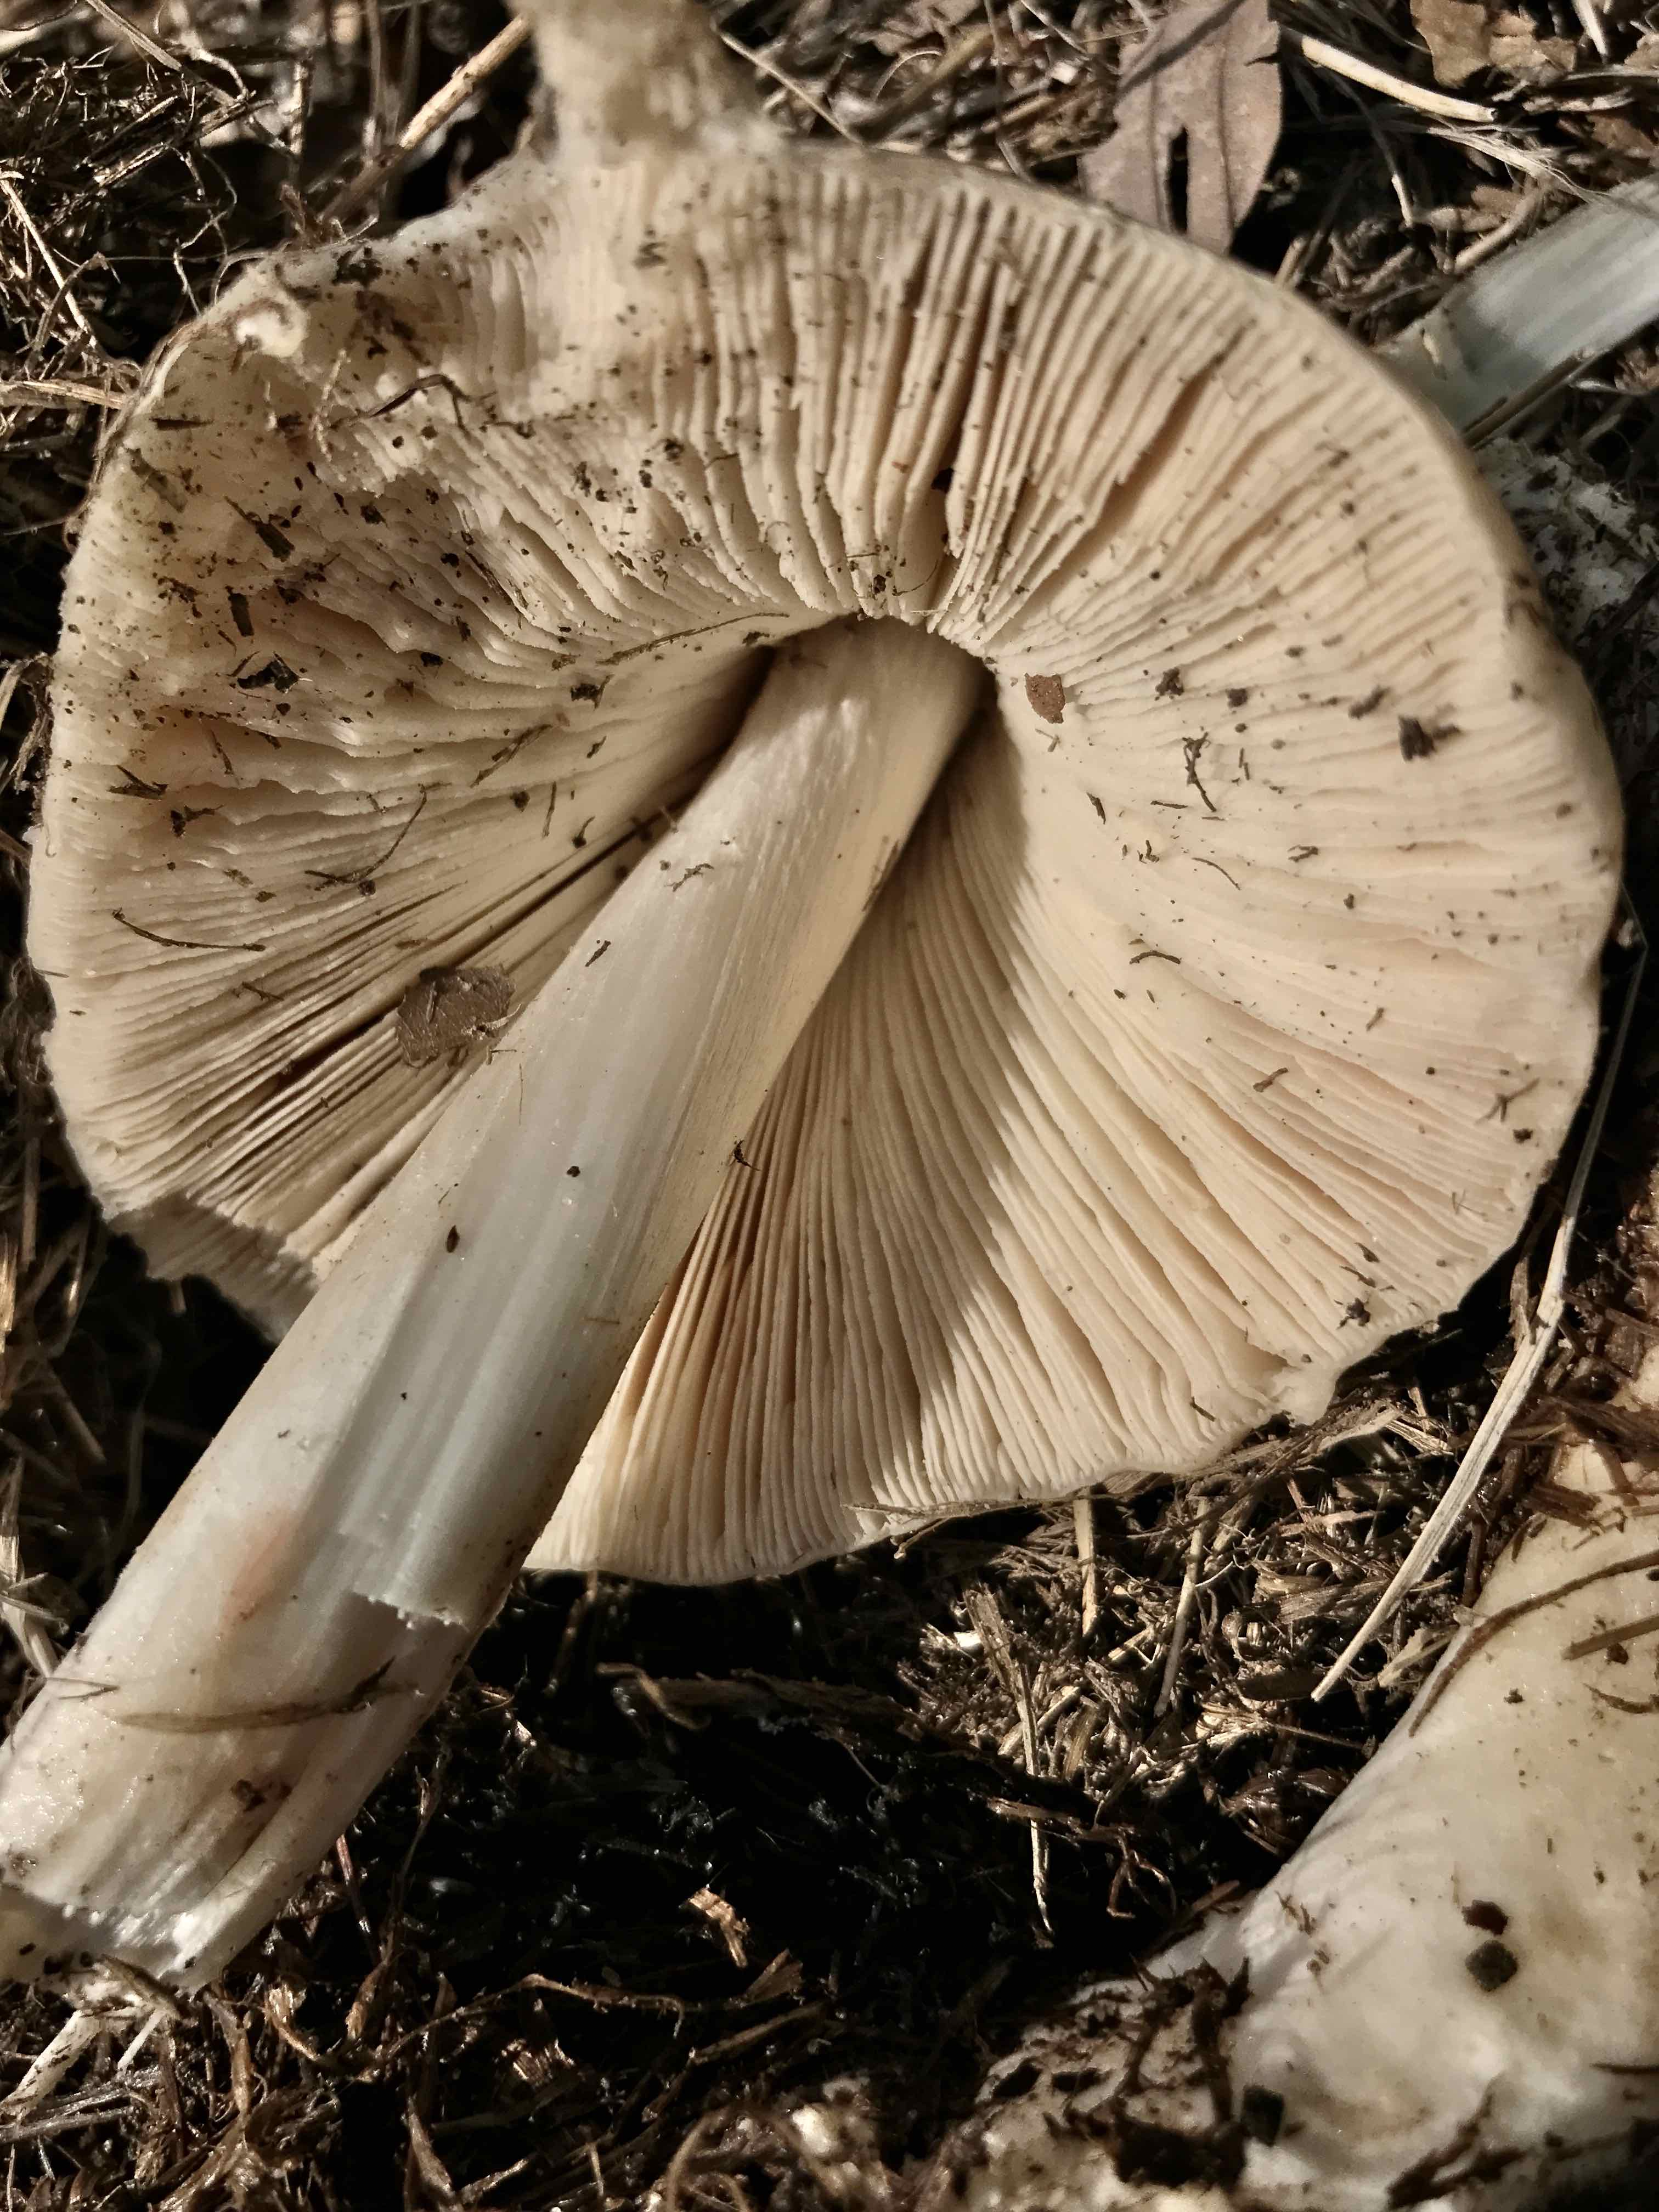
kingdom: Fungi
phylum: Basidiomycota
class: Agaricomycetes
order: Agaricales
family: Pluteaceae
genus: Volvopluteus
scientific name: Volvopluteus gloiocephalus
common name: høj posesvamp
